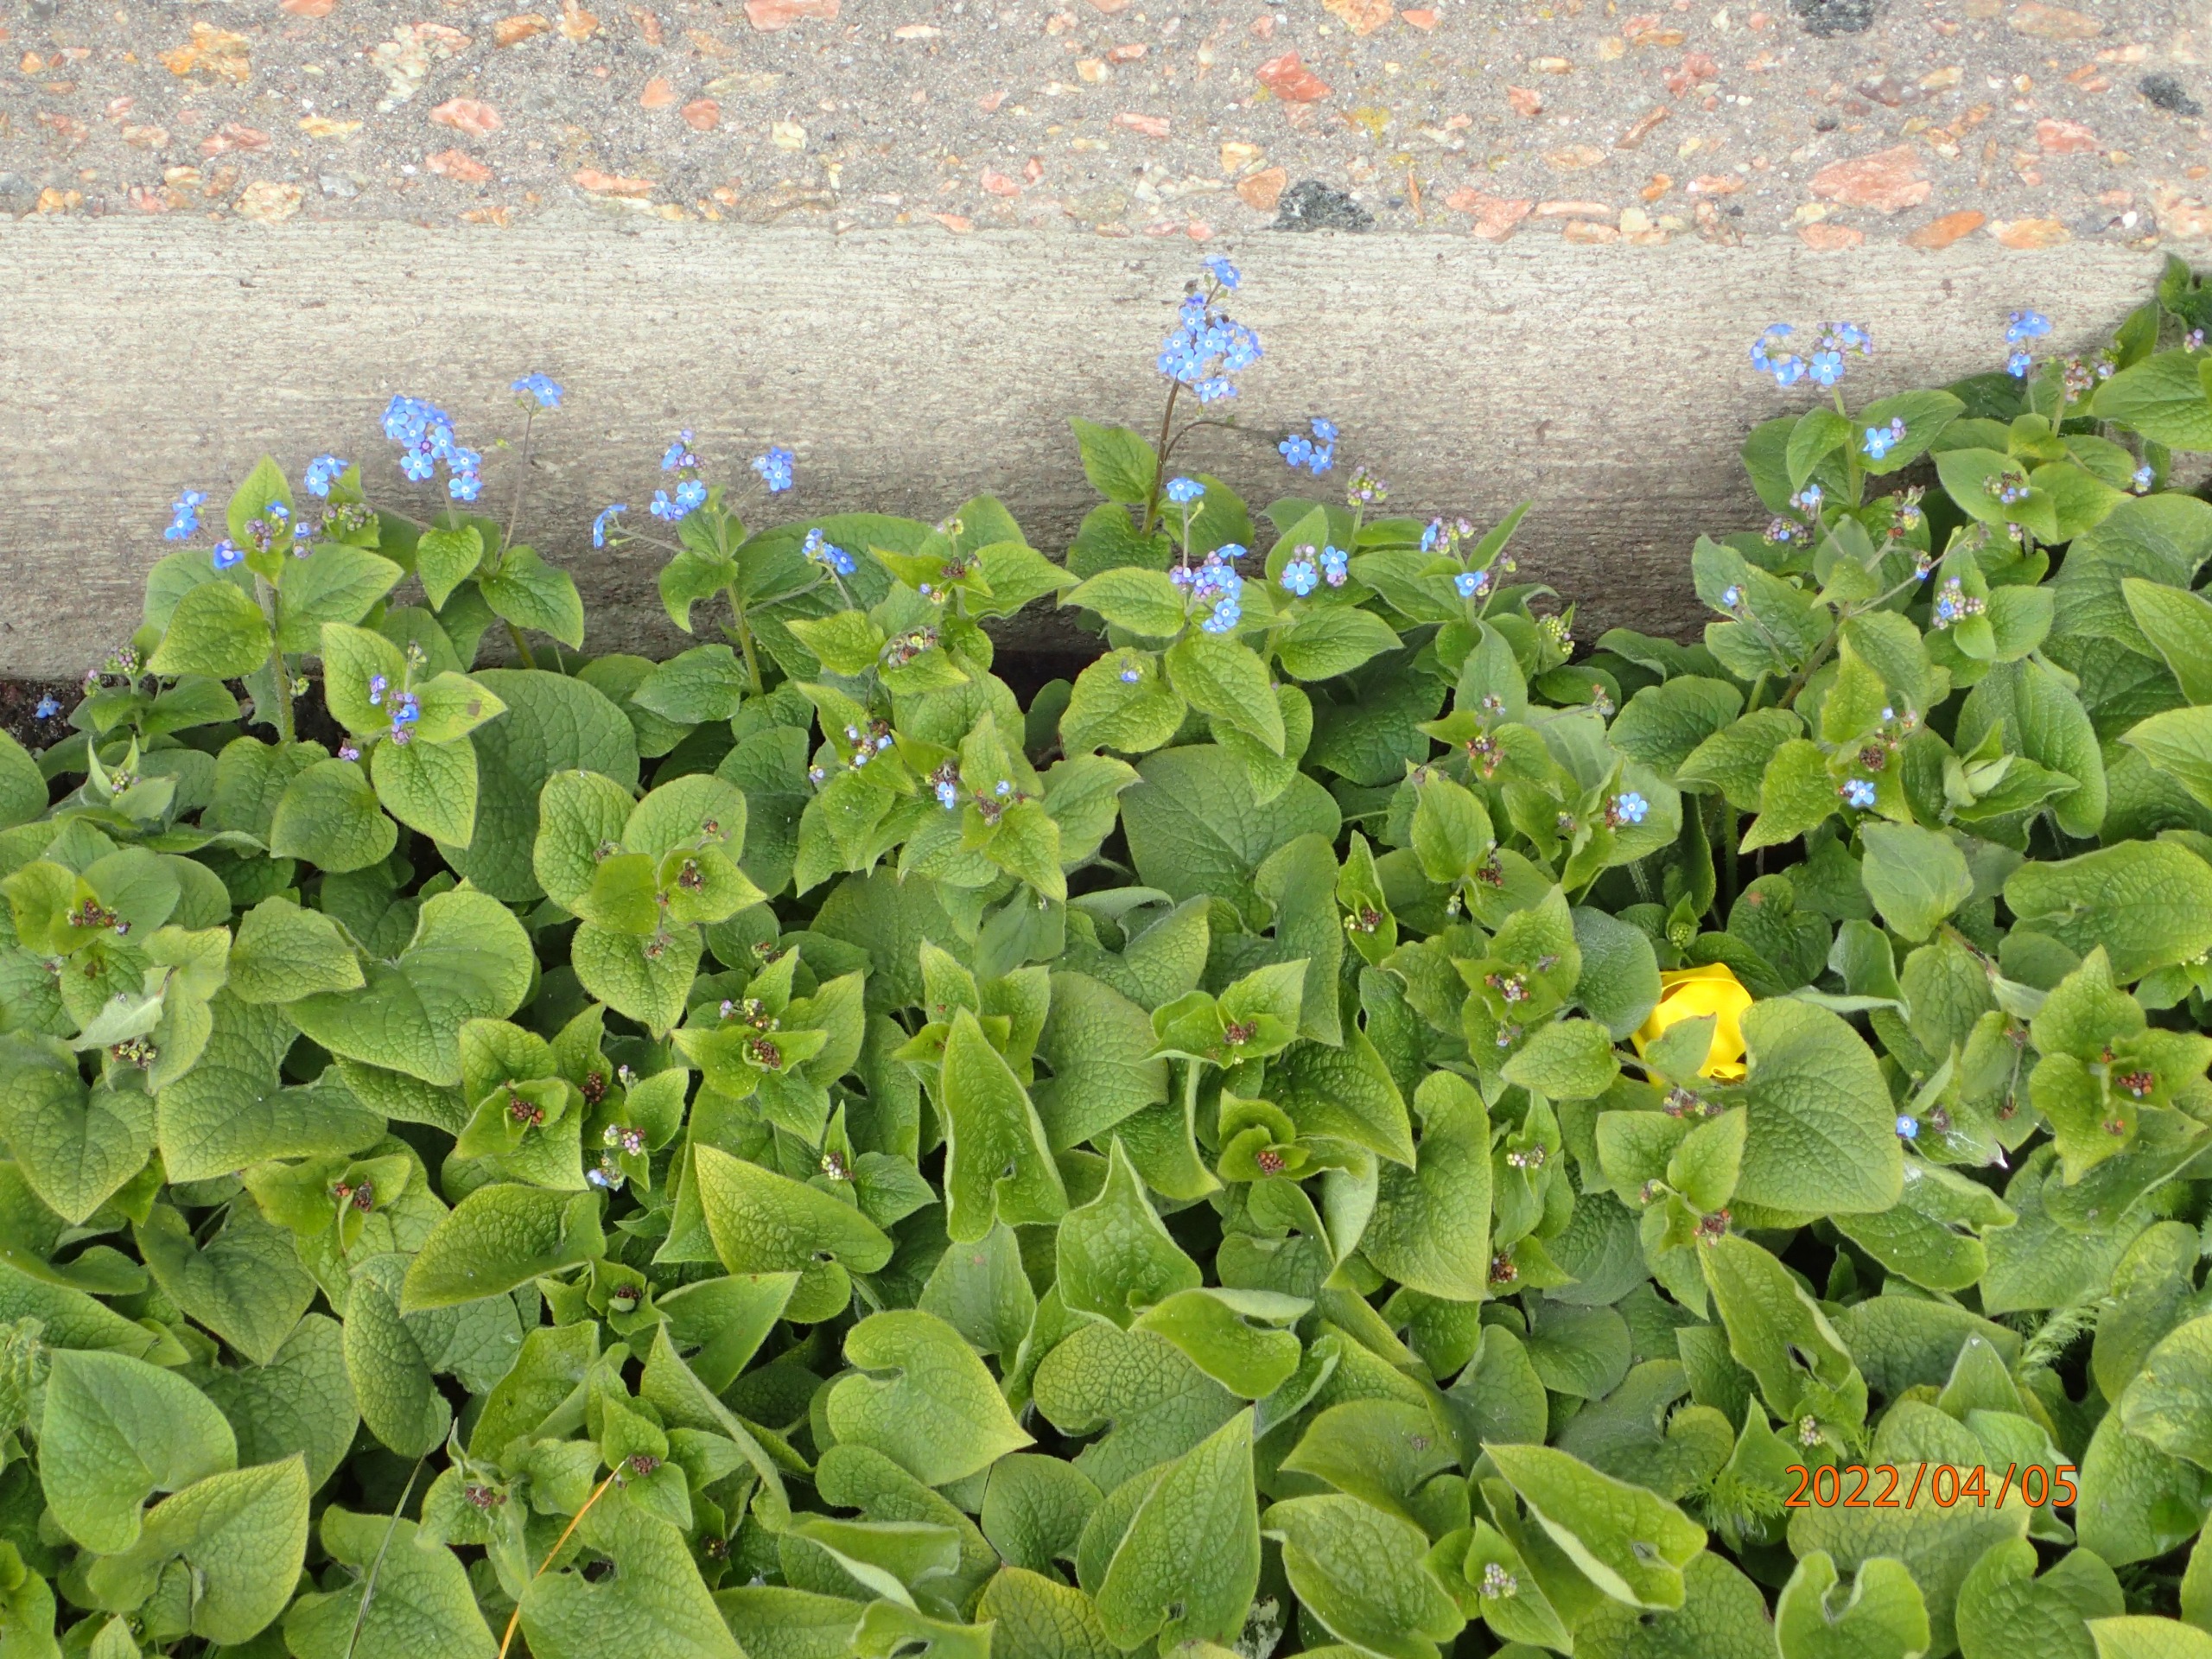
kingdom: Plantae
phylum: Tracheophyta
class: Magnoliopsida
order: Boraginales
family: Boraginaceae
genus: Brunnera
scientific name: Brunnera macrophylla
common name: Kærmindesøster
